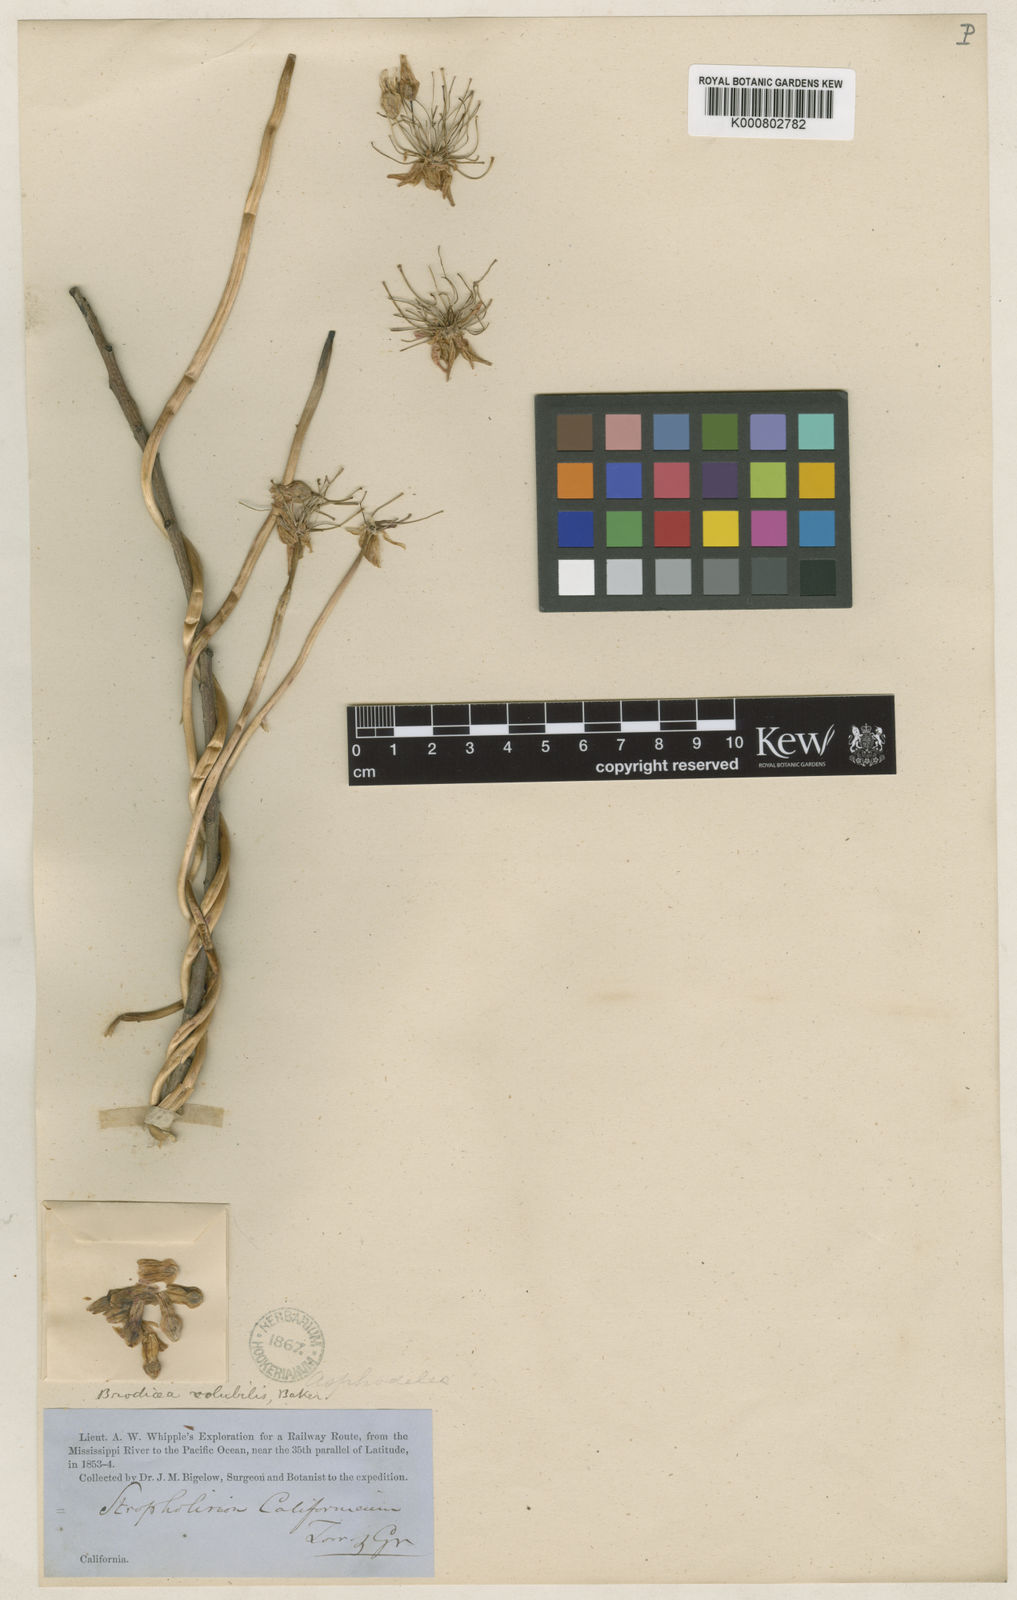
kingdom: Plantae
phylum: Tracheophyta
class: Liliopsida
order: Asparagales
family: Asparagaceae
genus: Dichelostemma
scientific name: Dichelostemma
